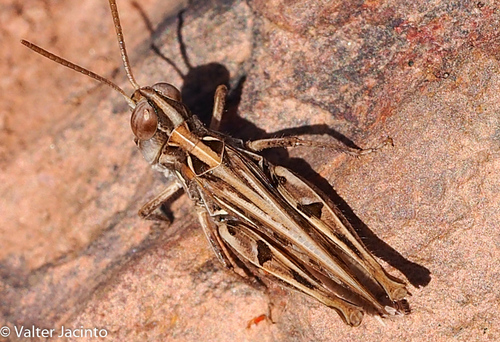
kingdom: Animalia
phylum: Arthropoda
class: Insecta
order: Orthoptera
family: Acrididae
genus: Dociostaurus
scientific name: Dociostaurus jagoi
